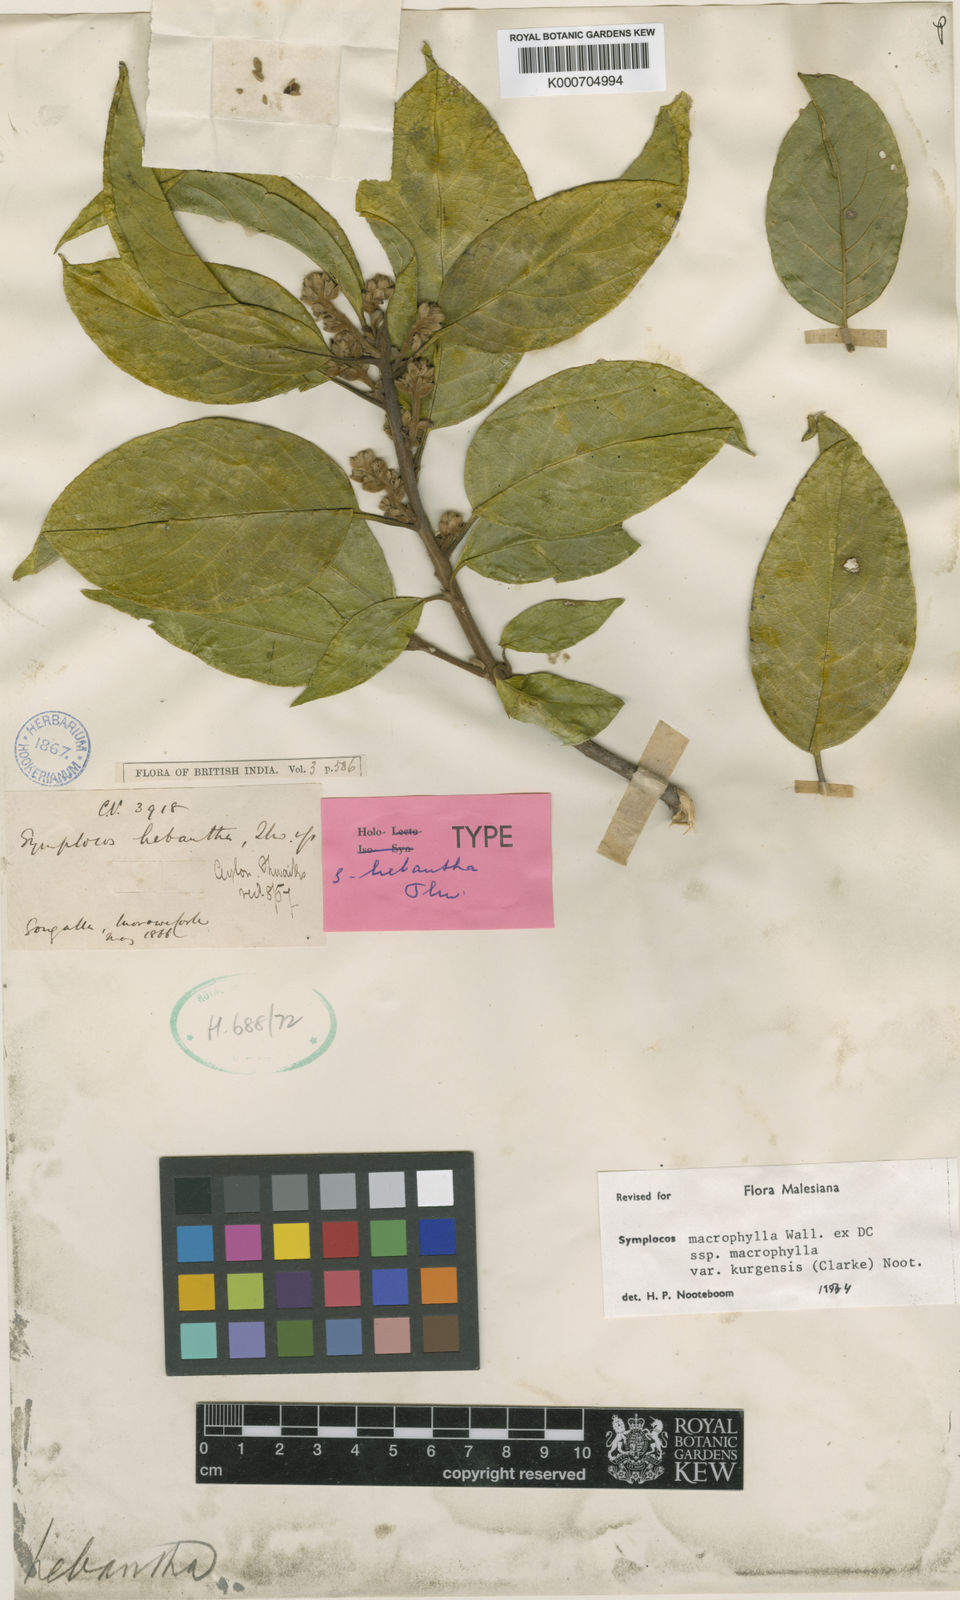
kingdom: Plantae
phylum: Tracheophyta
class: Magnoliopsida
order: Ericales
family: Symplocaceae
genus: Symplocos
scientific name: Symplocos
